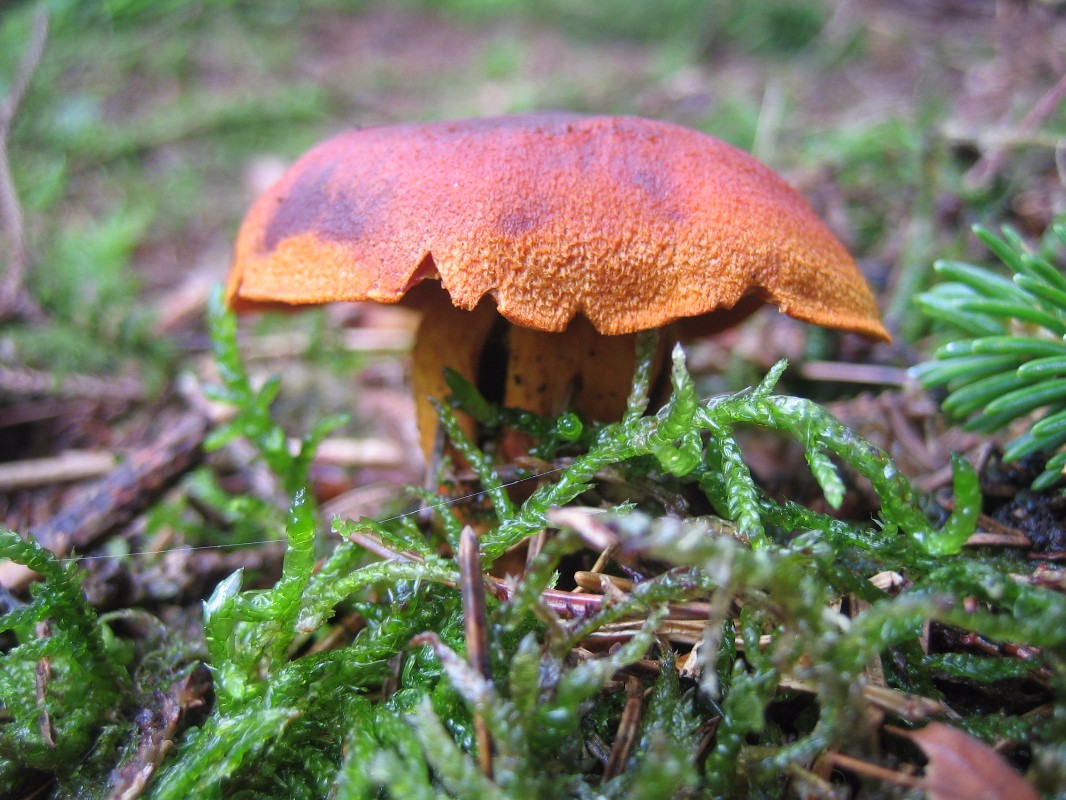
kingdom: Fungi
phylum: Basidiomycota
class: Agaricomycetes
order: Agaricales
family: Cortinariaceae
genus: Cortinarius
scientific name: Cortinarius malicorius
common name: grønkødet slørhat
